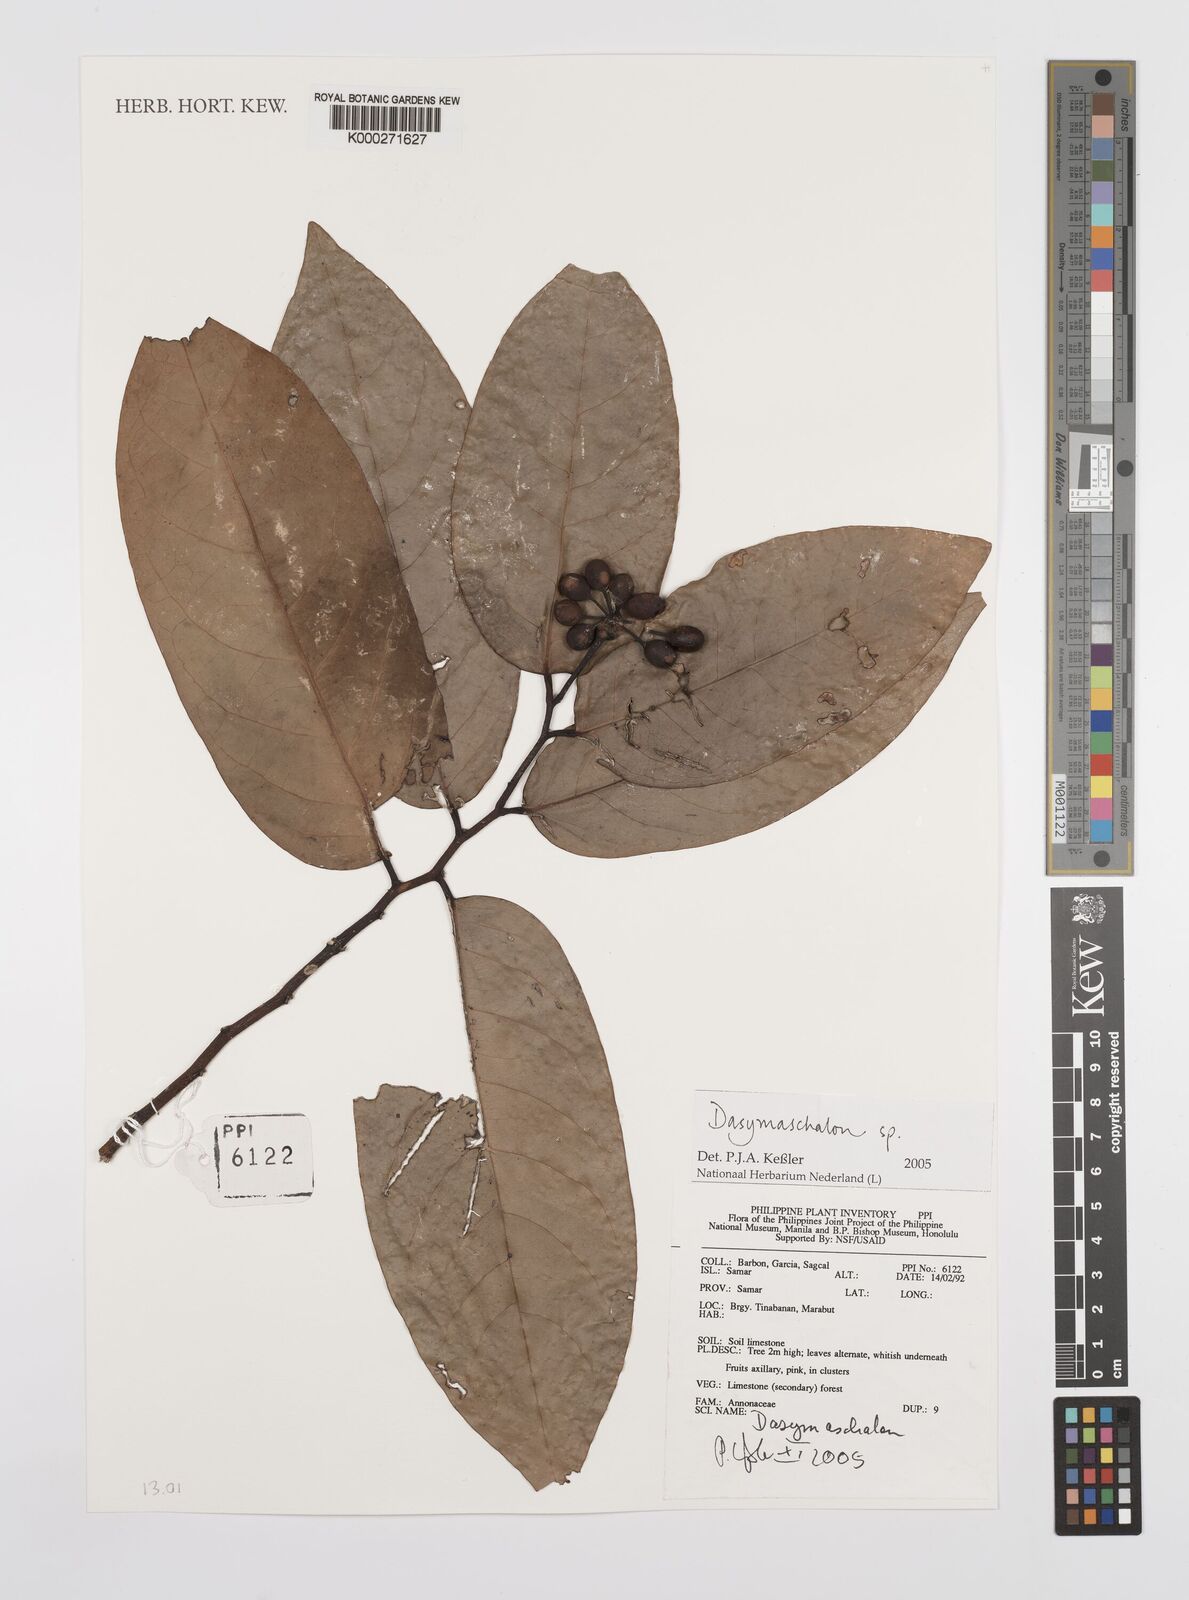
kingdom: Plantae
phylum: Tracheophyta
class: Magnoliopsida
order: Magnoliales
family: Annonaceae
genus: Dasymaschalon
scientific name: Dasymaschalon
